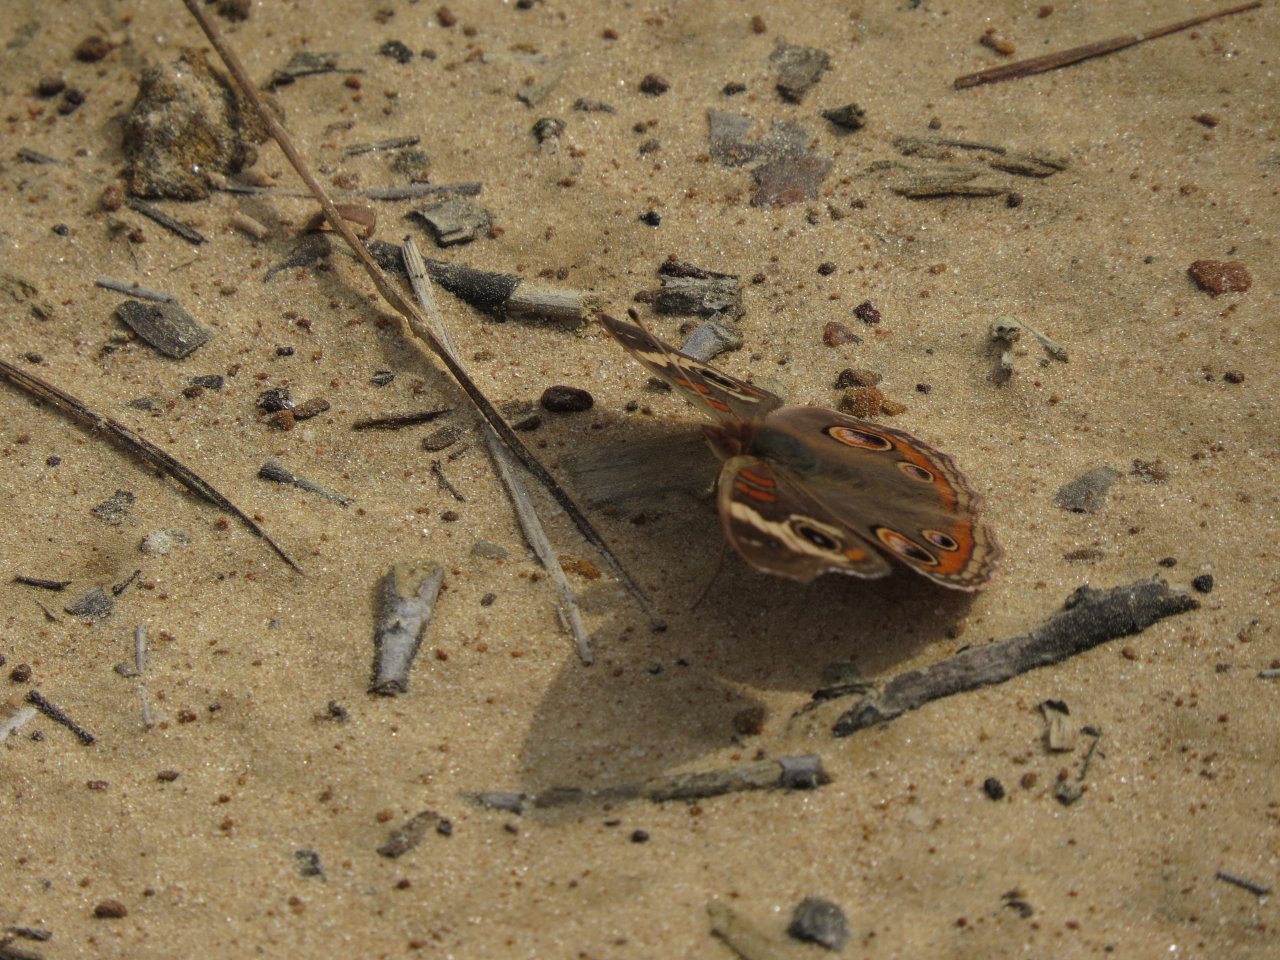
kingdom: Animalia
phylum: Arthropoda
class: Insecta
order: Lepidoptera
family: Nymphalidae
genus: Junonia
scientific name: Junonia coenia
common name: Common Buckeye
